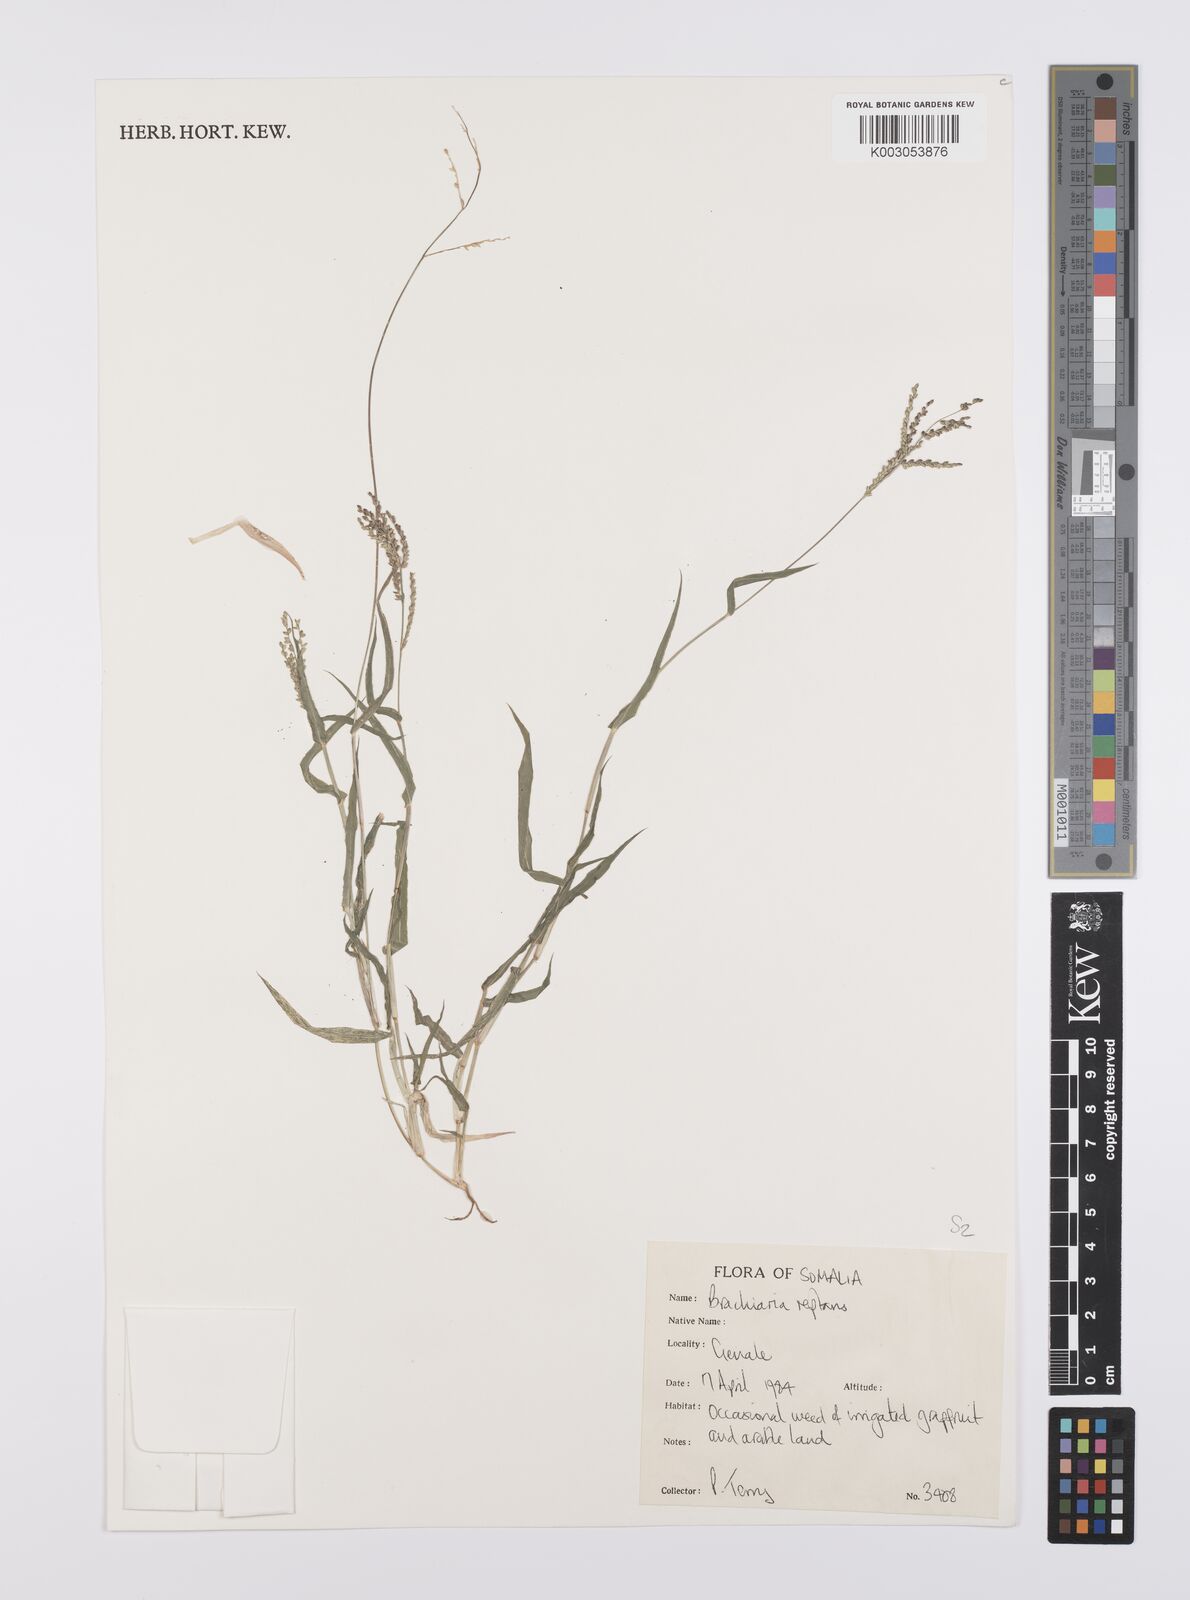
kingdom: Plantae
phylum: Tracheophyta
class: Liliopsida
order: Poales
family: Poaceae
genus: Urochloa
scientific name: Urochloa reptans
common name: Sprawling signalgrass
